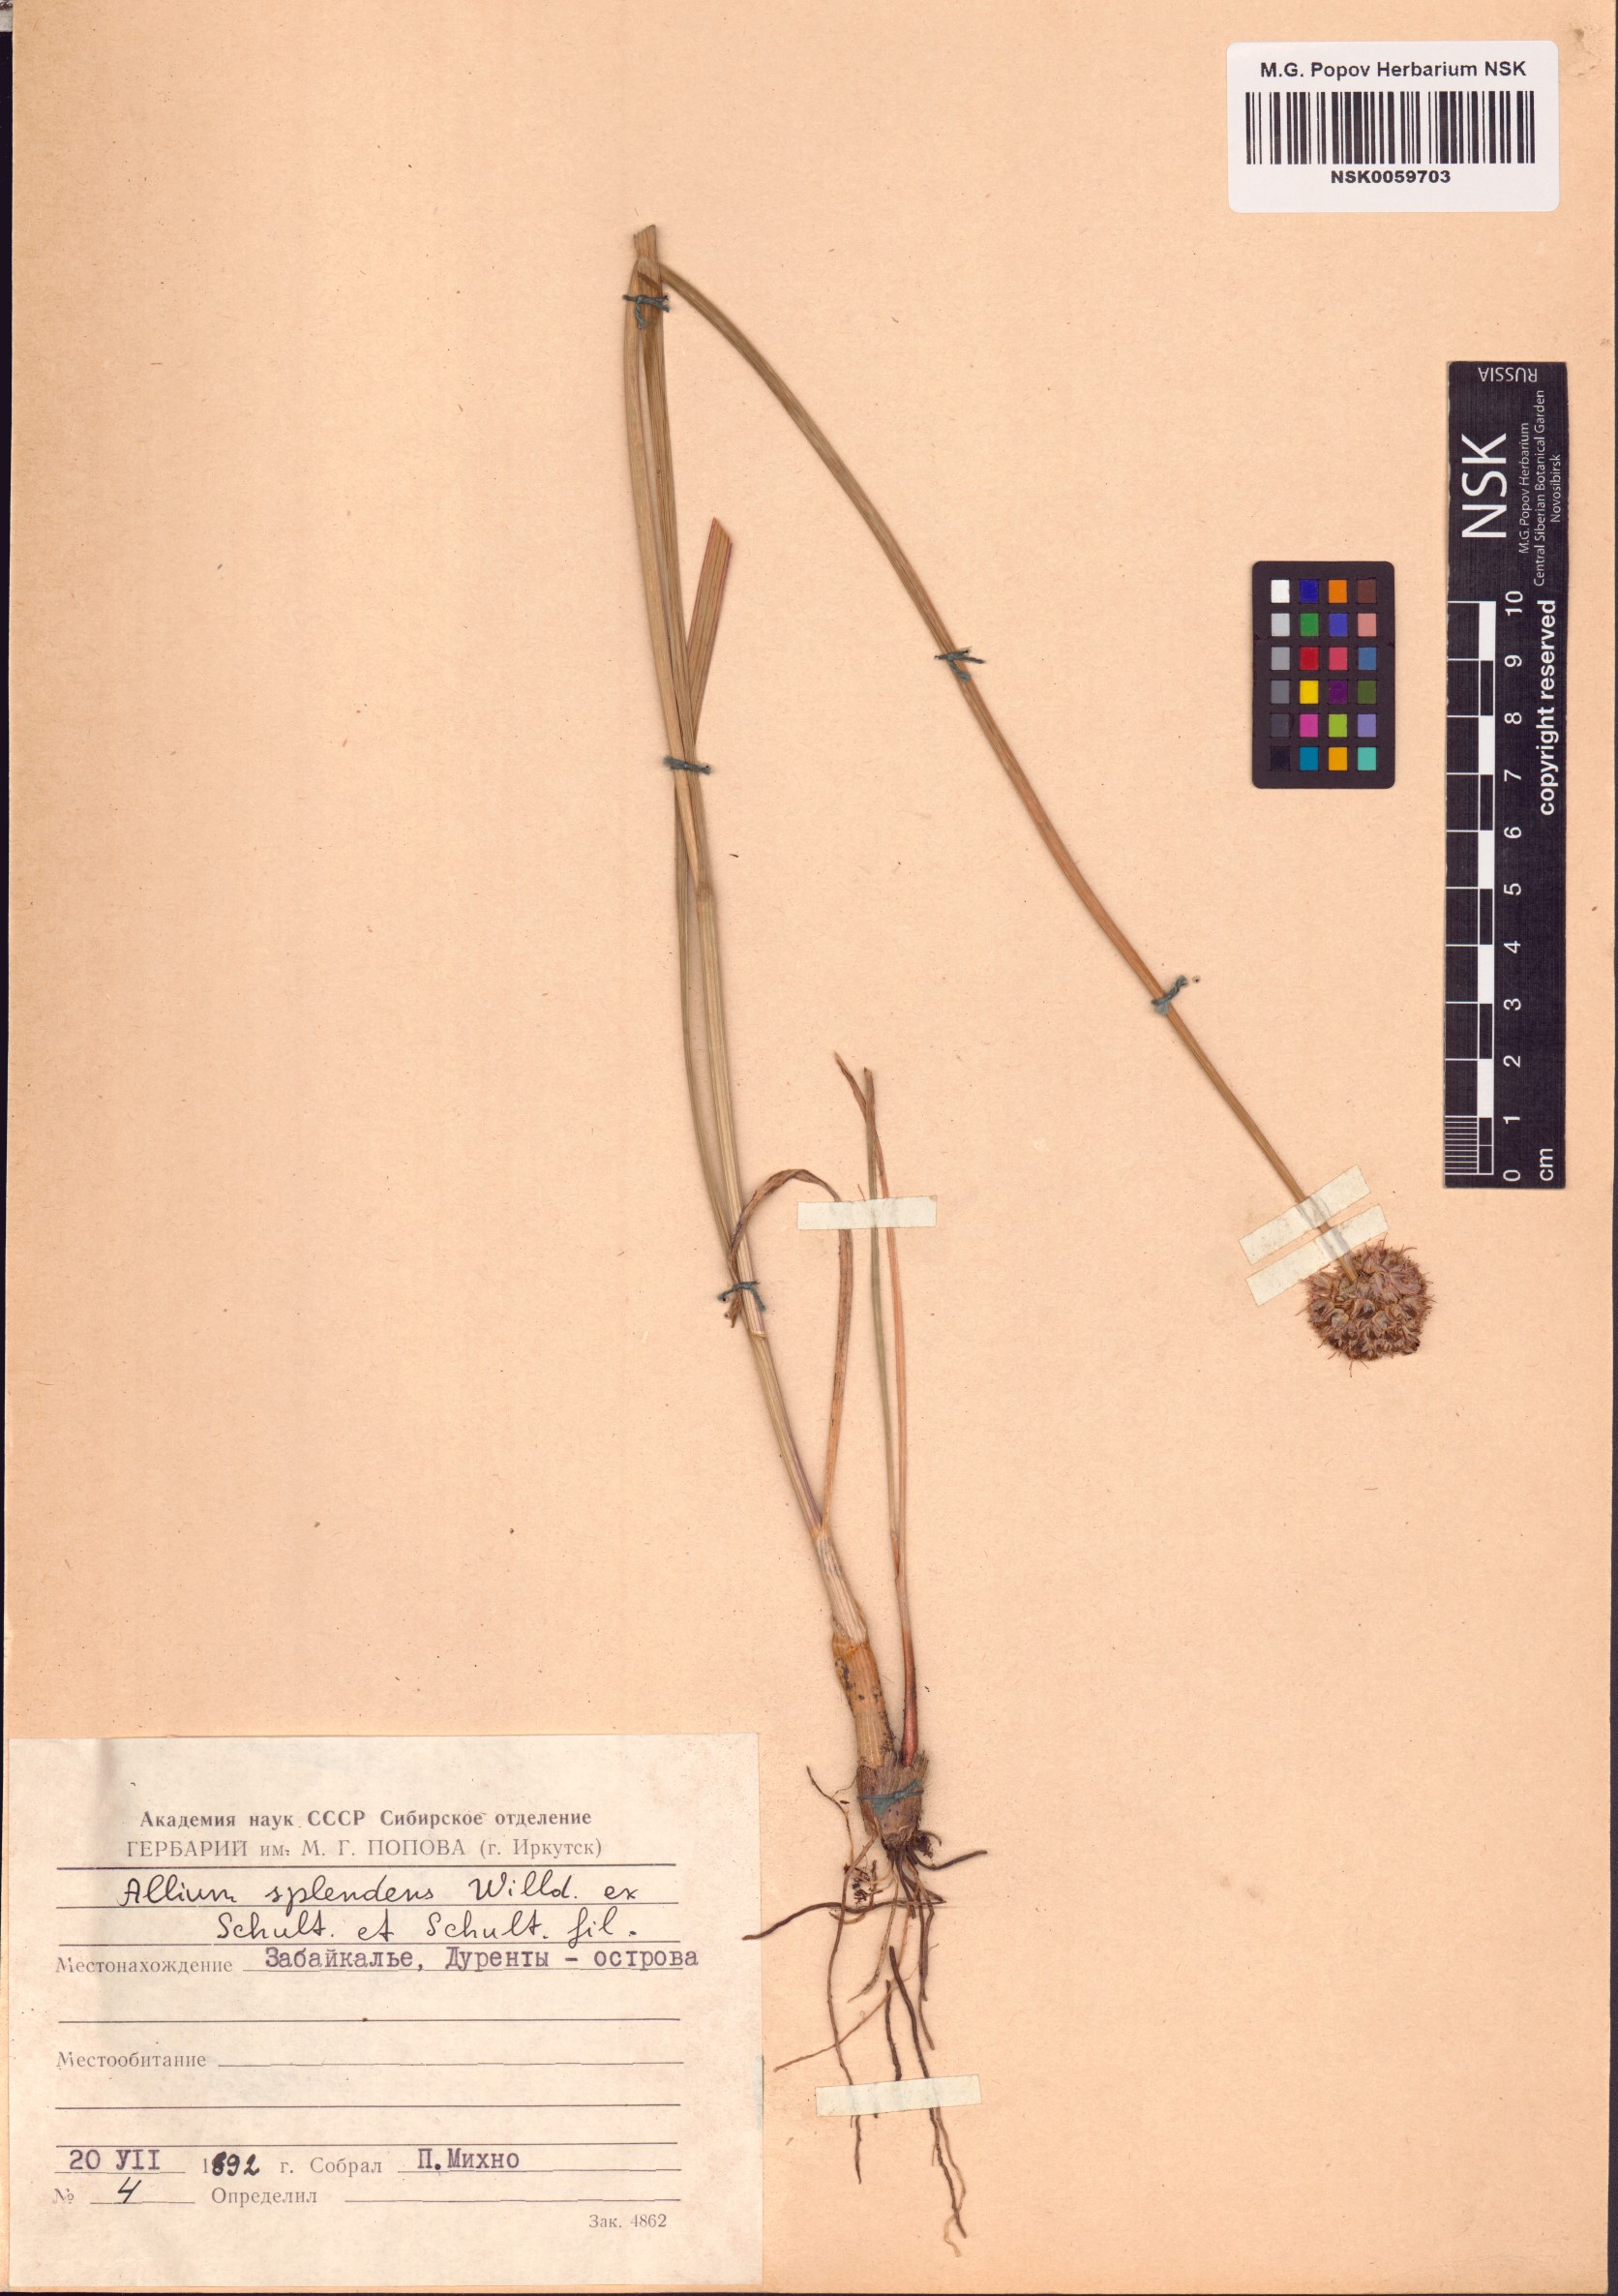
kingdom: Plantae
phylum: Tracheophyta
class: Liliopsida
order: Asparagales
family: Amaryllidaceae
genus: Allium
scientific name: Allium splendens
